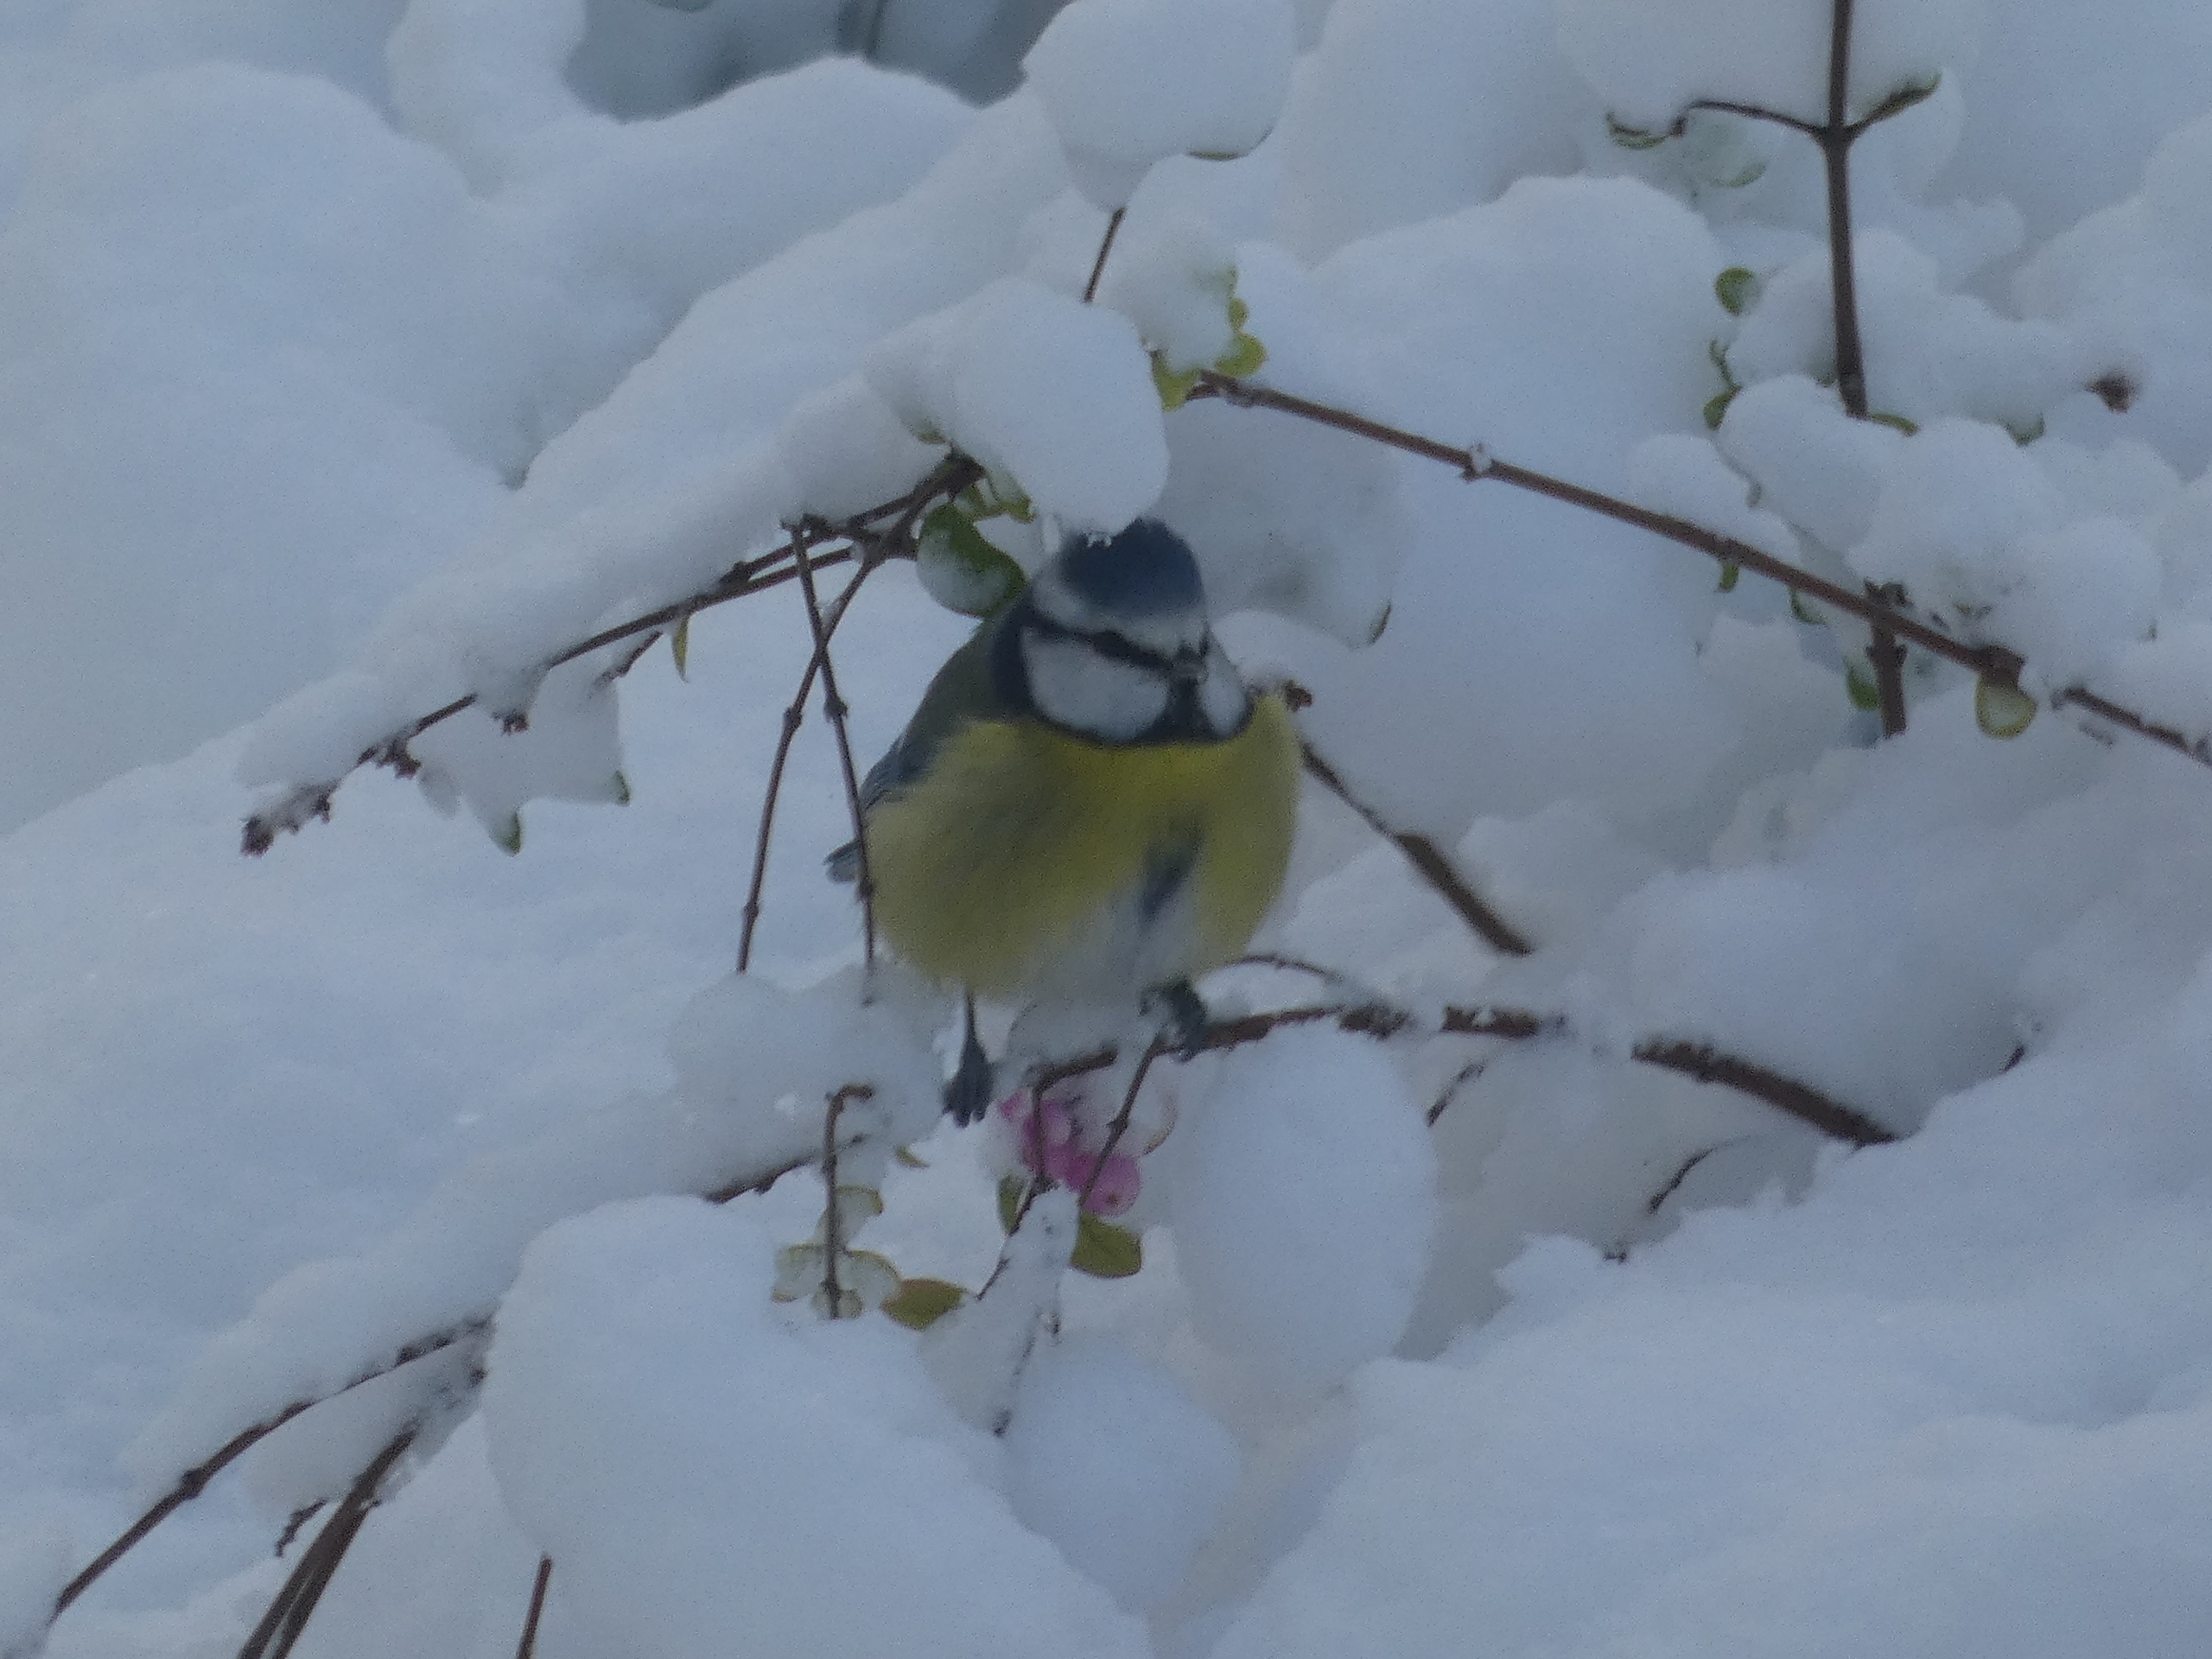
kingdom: Animalia
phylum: Chordata
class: Aves
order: Passeriformes
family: Paridae
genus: Cyanistes
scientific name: Cyanistes caeruleus
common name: Blåmejse
